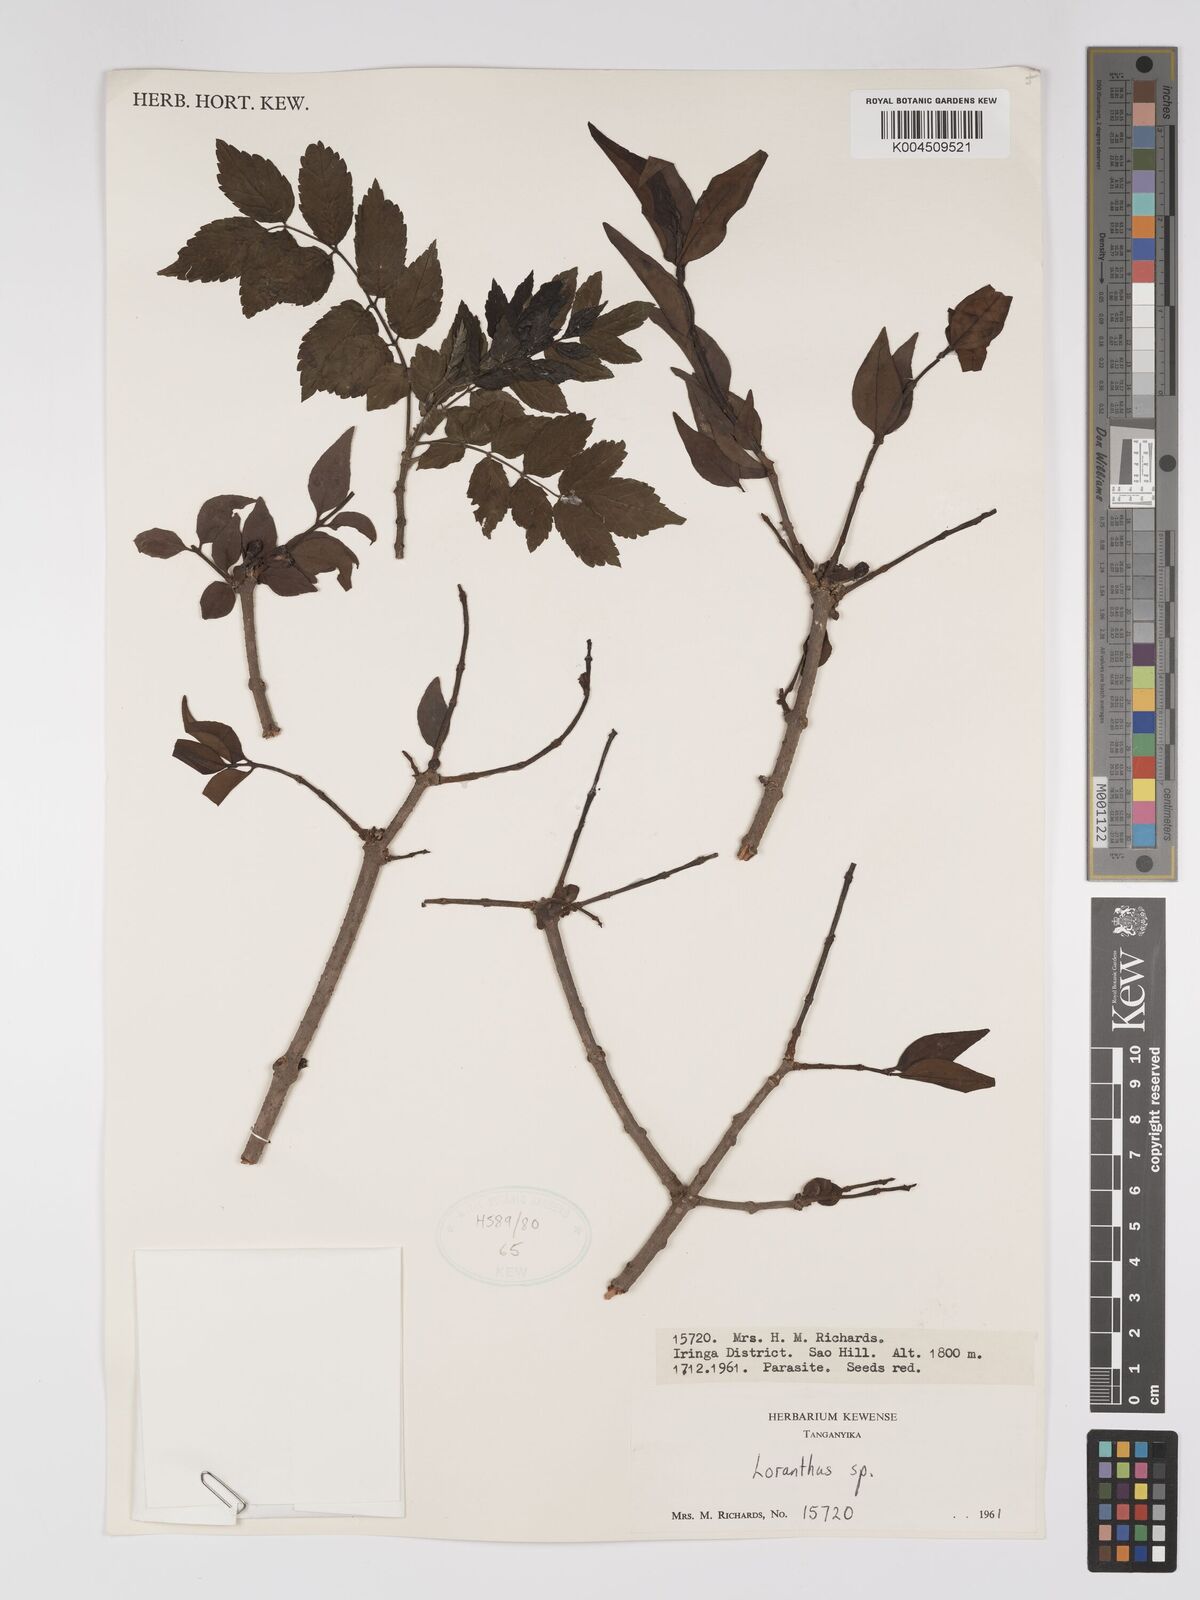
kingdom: Plantae
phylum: Tracheophyta
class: Magnoliopsida
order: Santalales
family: Loranthaceae
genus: Englerina
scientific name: Englerina inaequilatera
